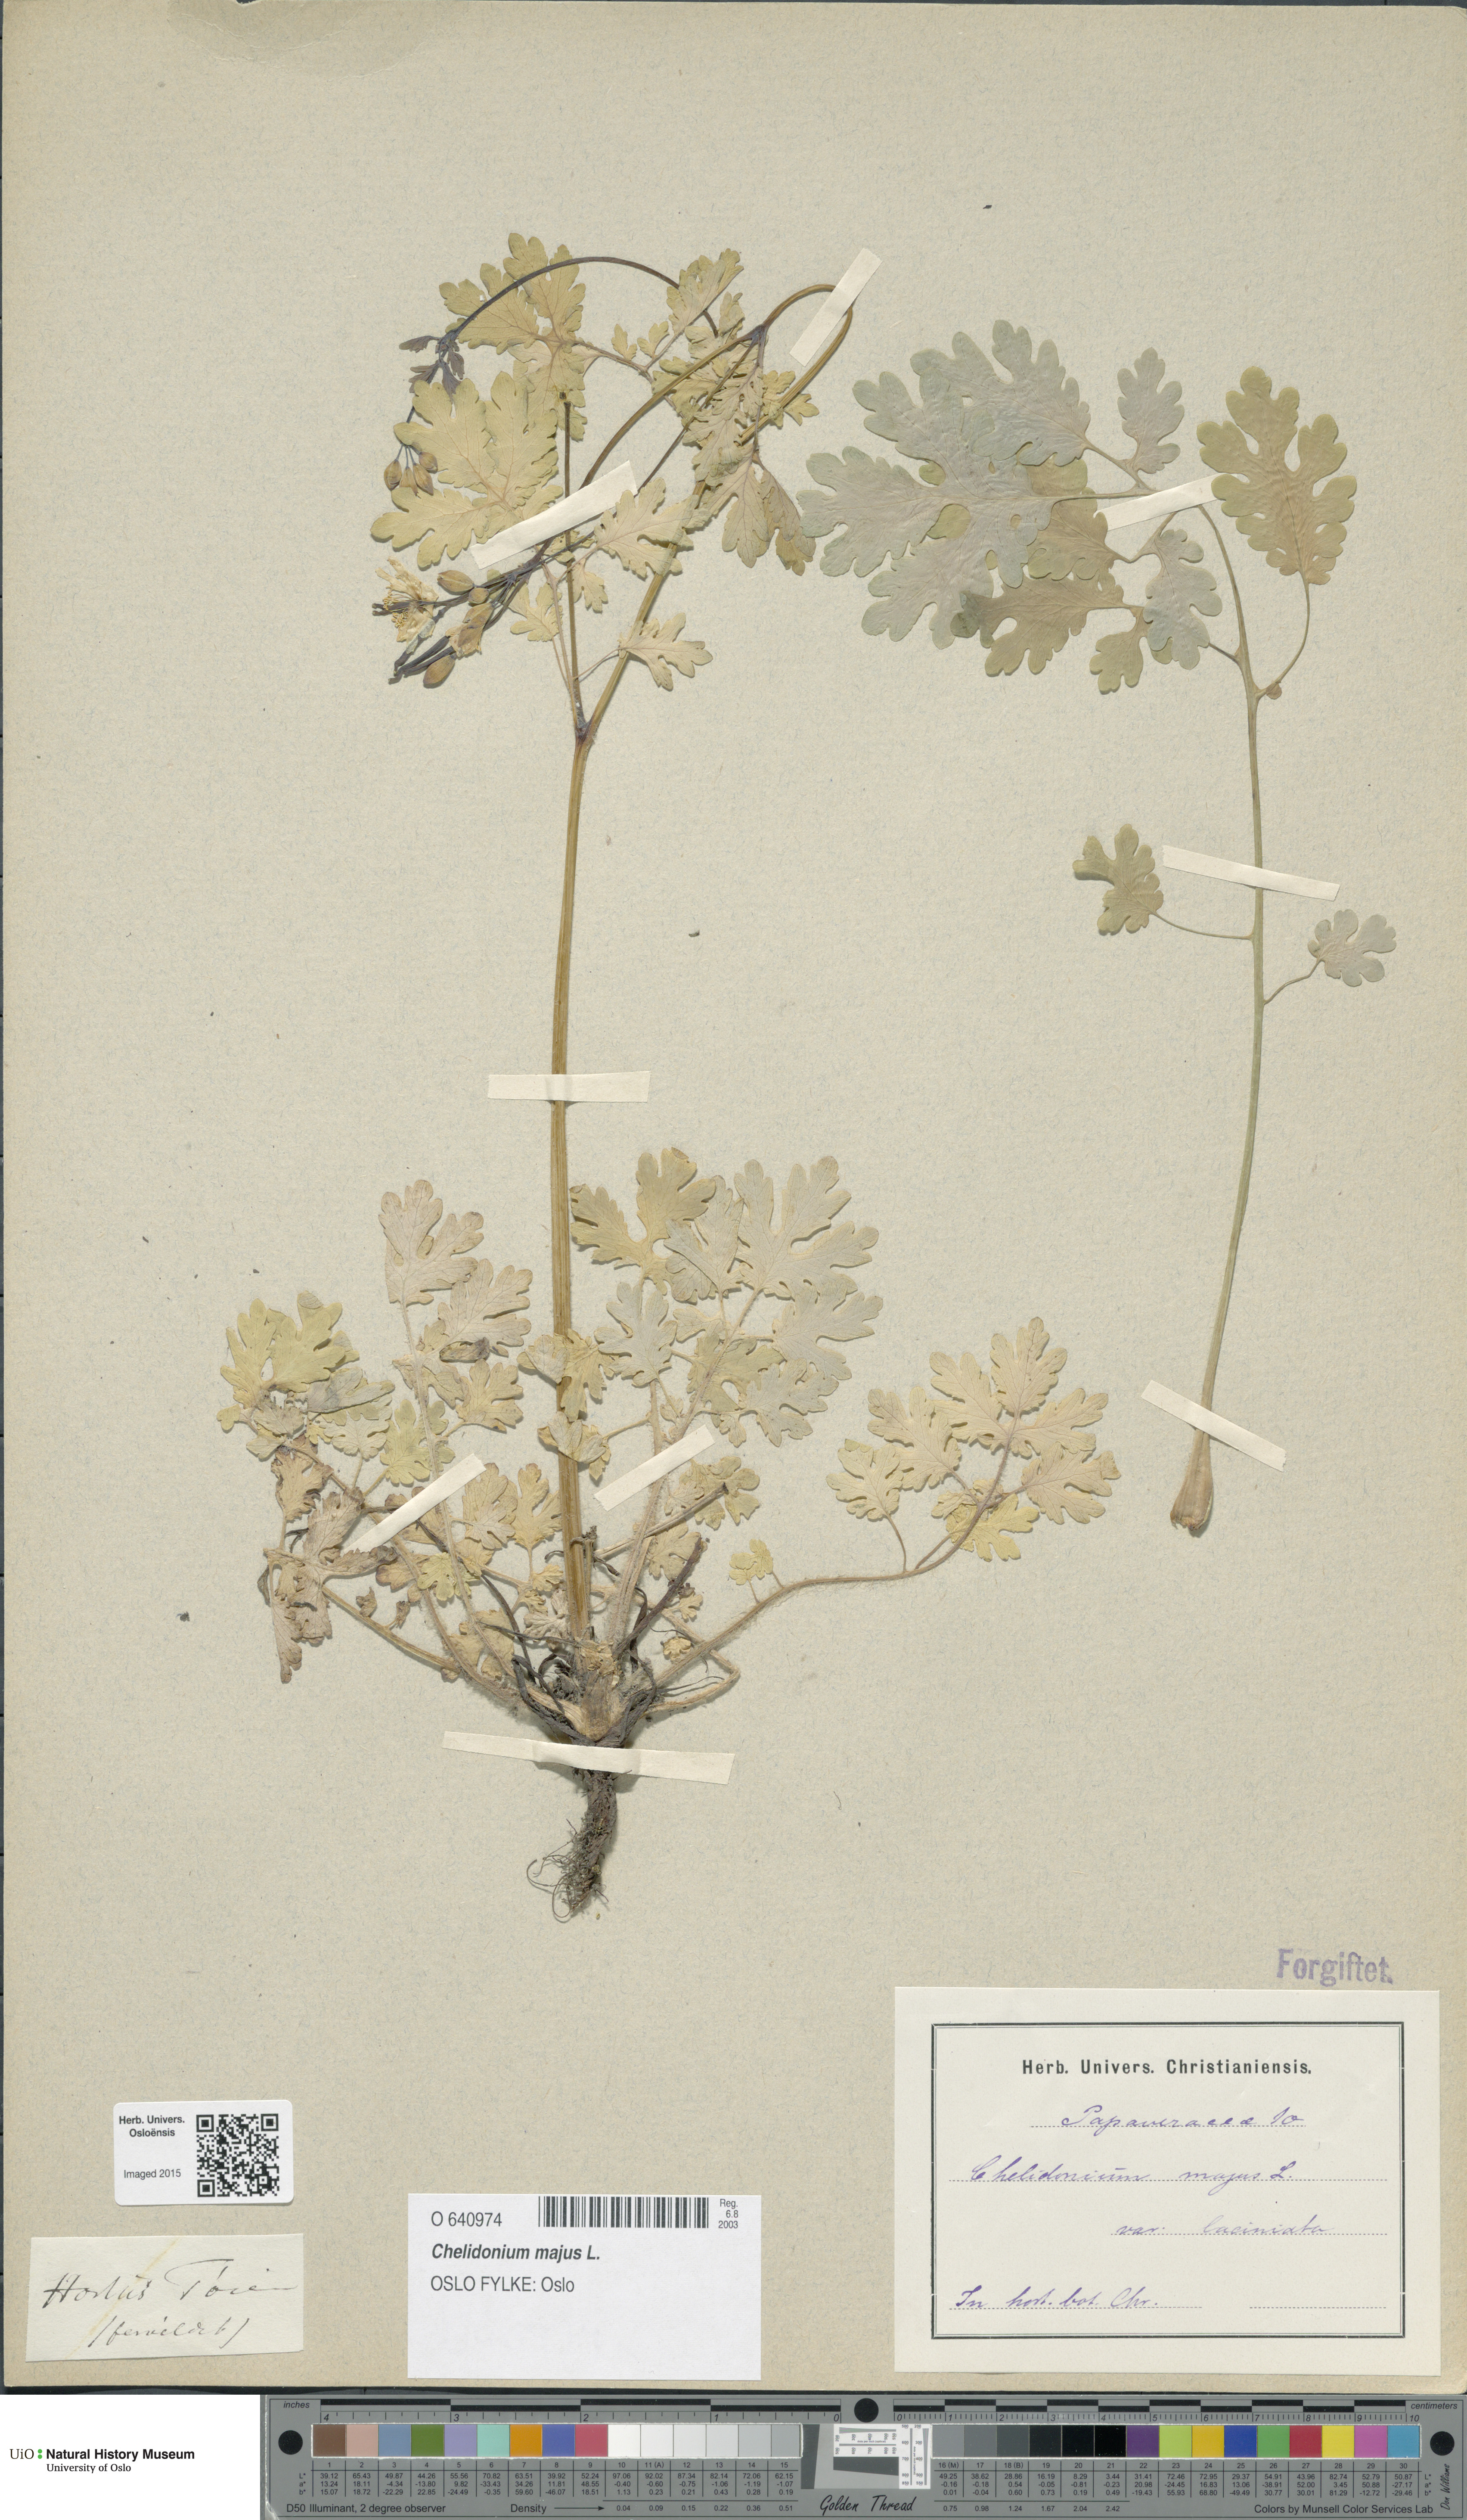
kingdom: Plantae
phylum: Tracheophyta
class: Magnoliopsida
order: Ranunculales
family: Papaveraceae
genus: Chelidonium
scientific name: Chelidonium majus
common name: Greater celandine
